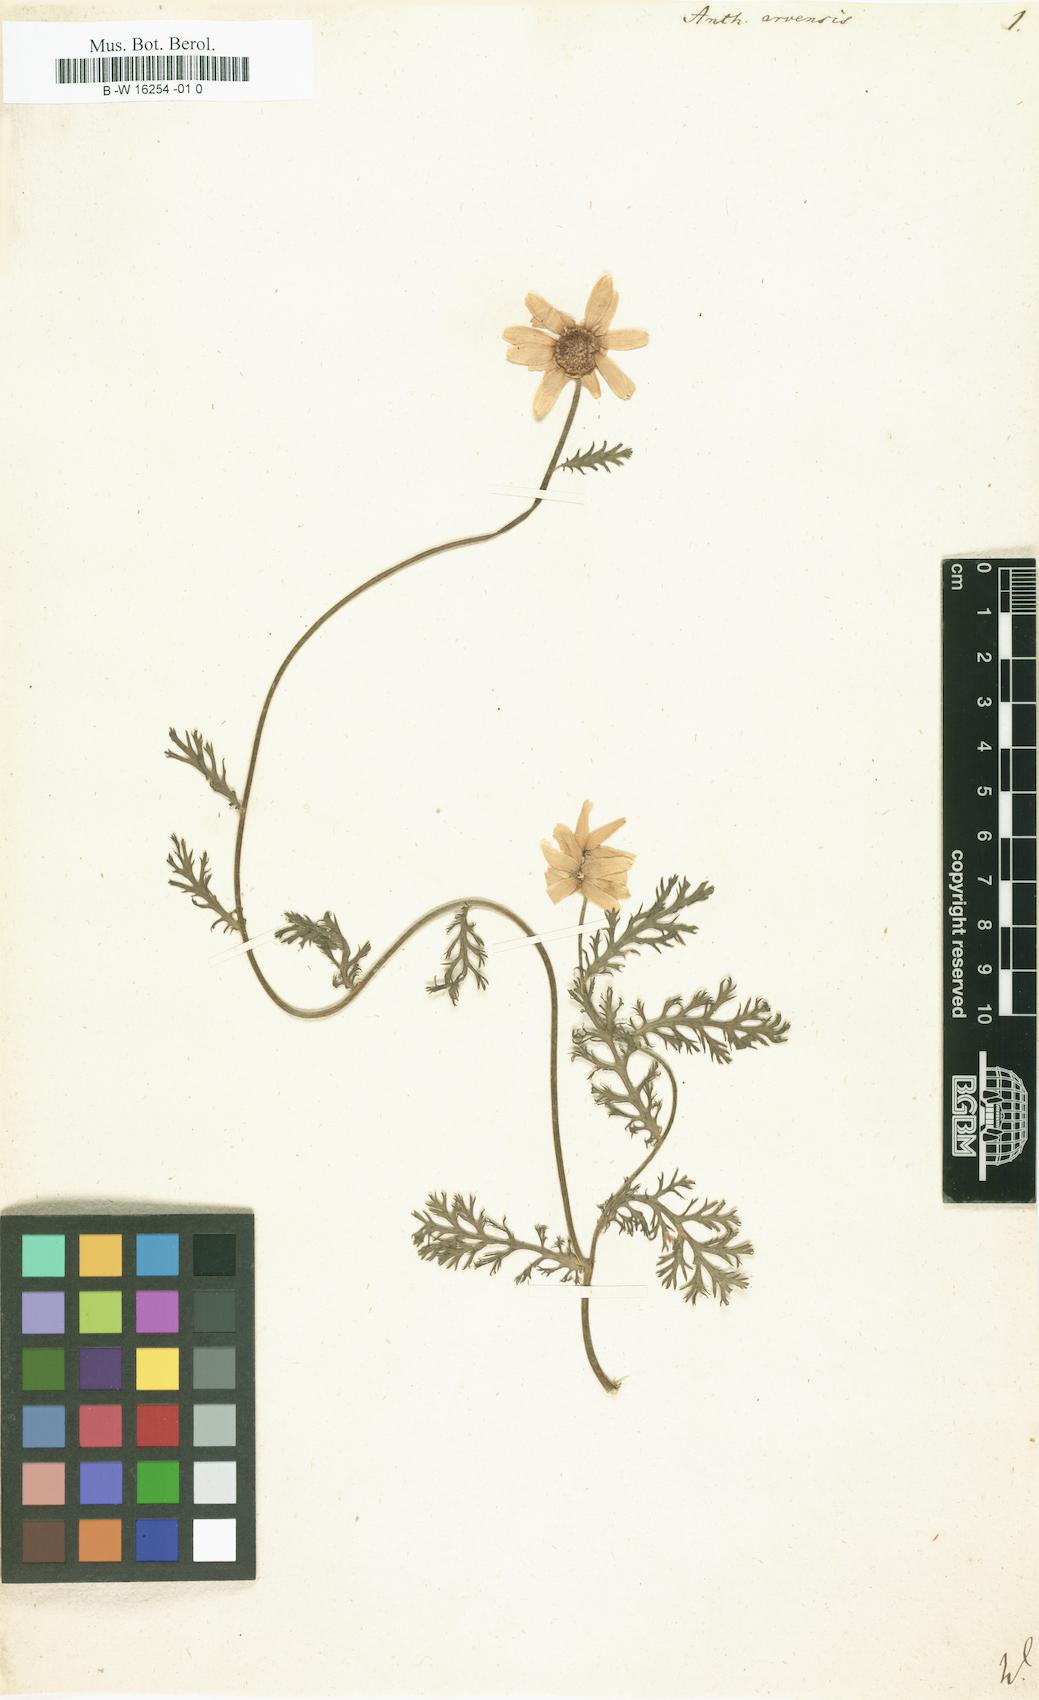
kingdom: Plantae
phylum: Tracheophyta
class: Magnoliopsida
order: Asterales
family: Asteraceae
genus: Anthemis
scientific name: Anthemis arvensis
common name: Corn chamomile
